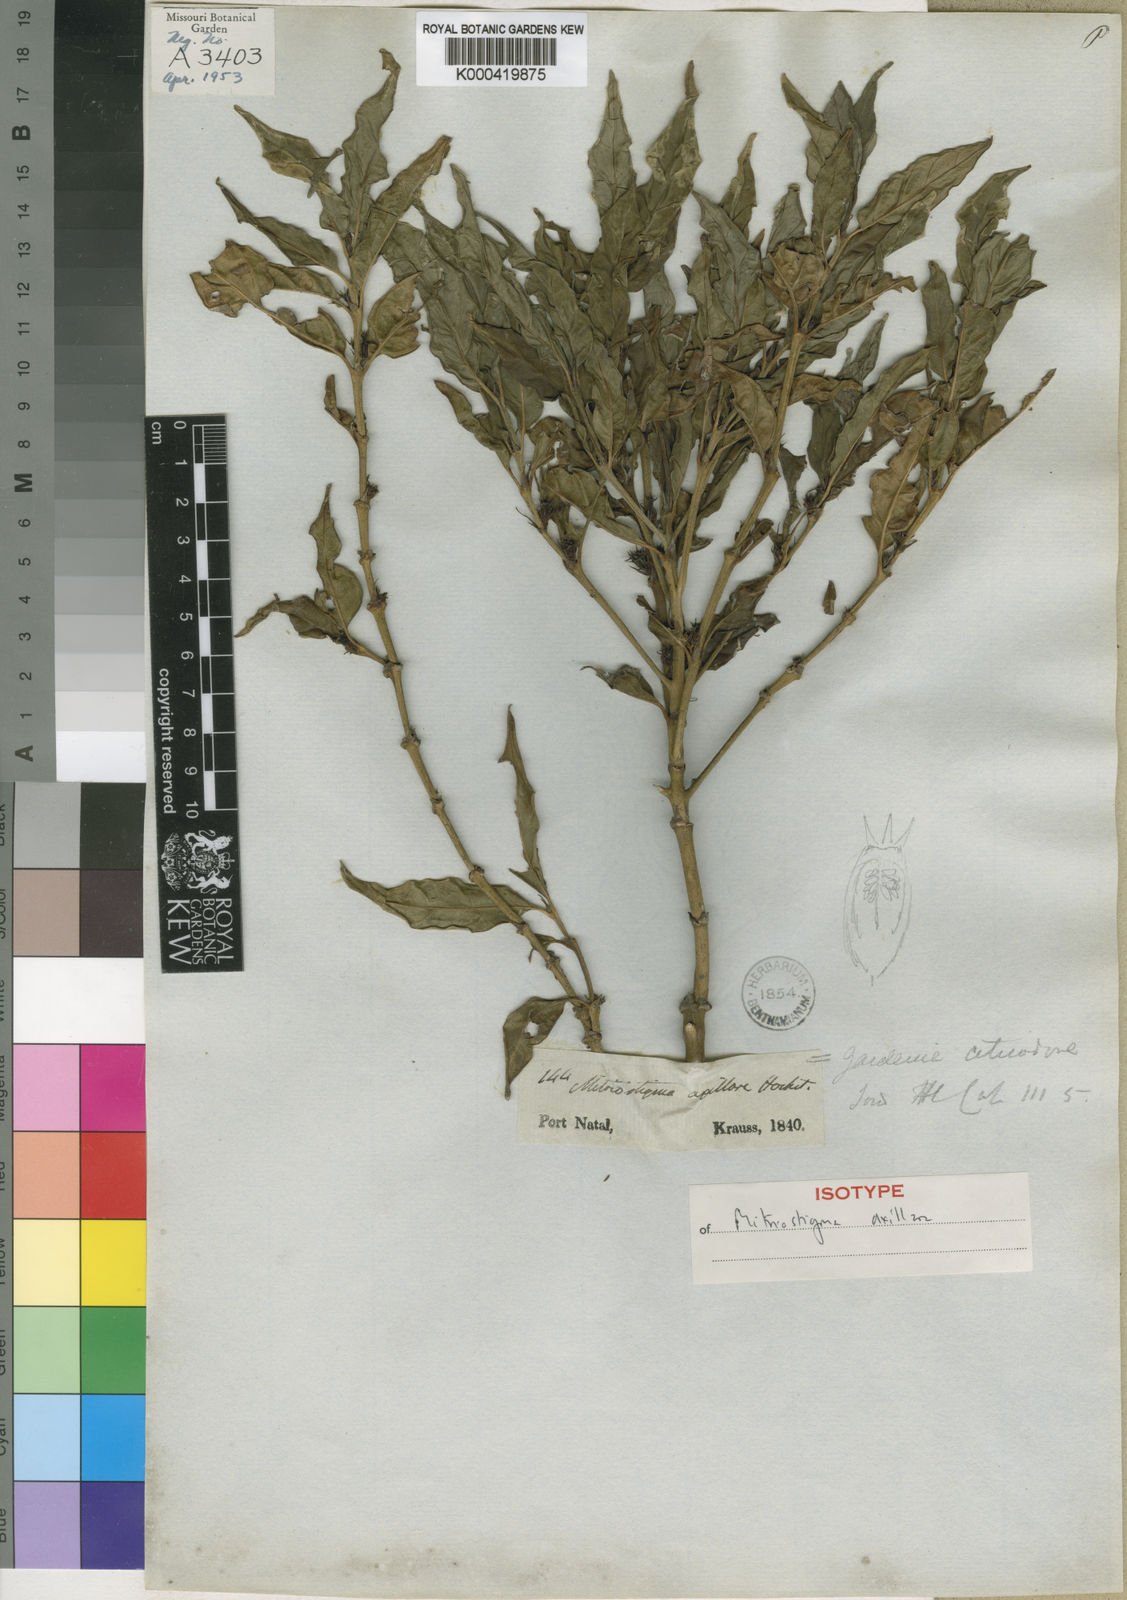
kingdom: Plantae
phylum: Tracheophyta
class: Magnoliopsida
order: Gentianales
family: Rubiaceae
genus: Mitriostigma
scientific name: Mitriostigma axillare
